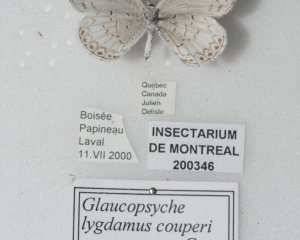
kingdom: Animalia
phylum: Arthropoda
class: Insecta
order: Lepidoptera
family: Lycaenidae
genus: Cyaniris
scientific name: Cyaniris neglecta
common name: Summer Azure
